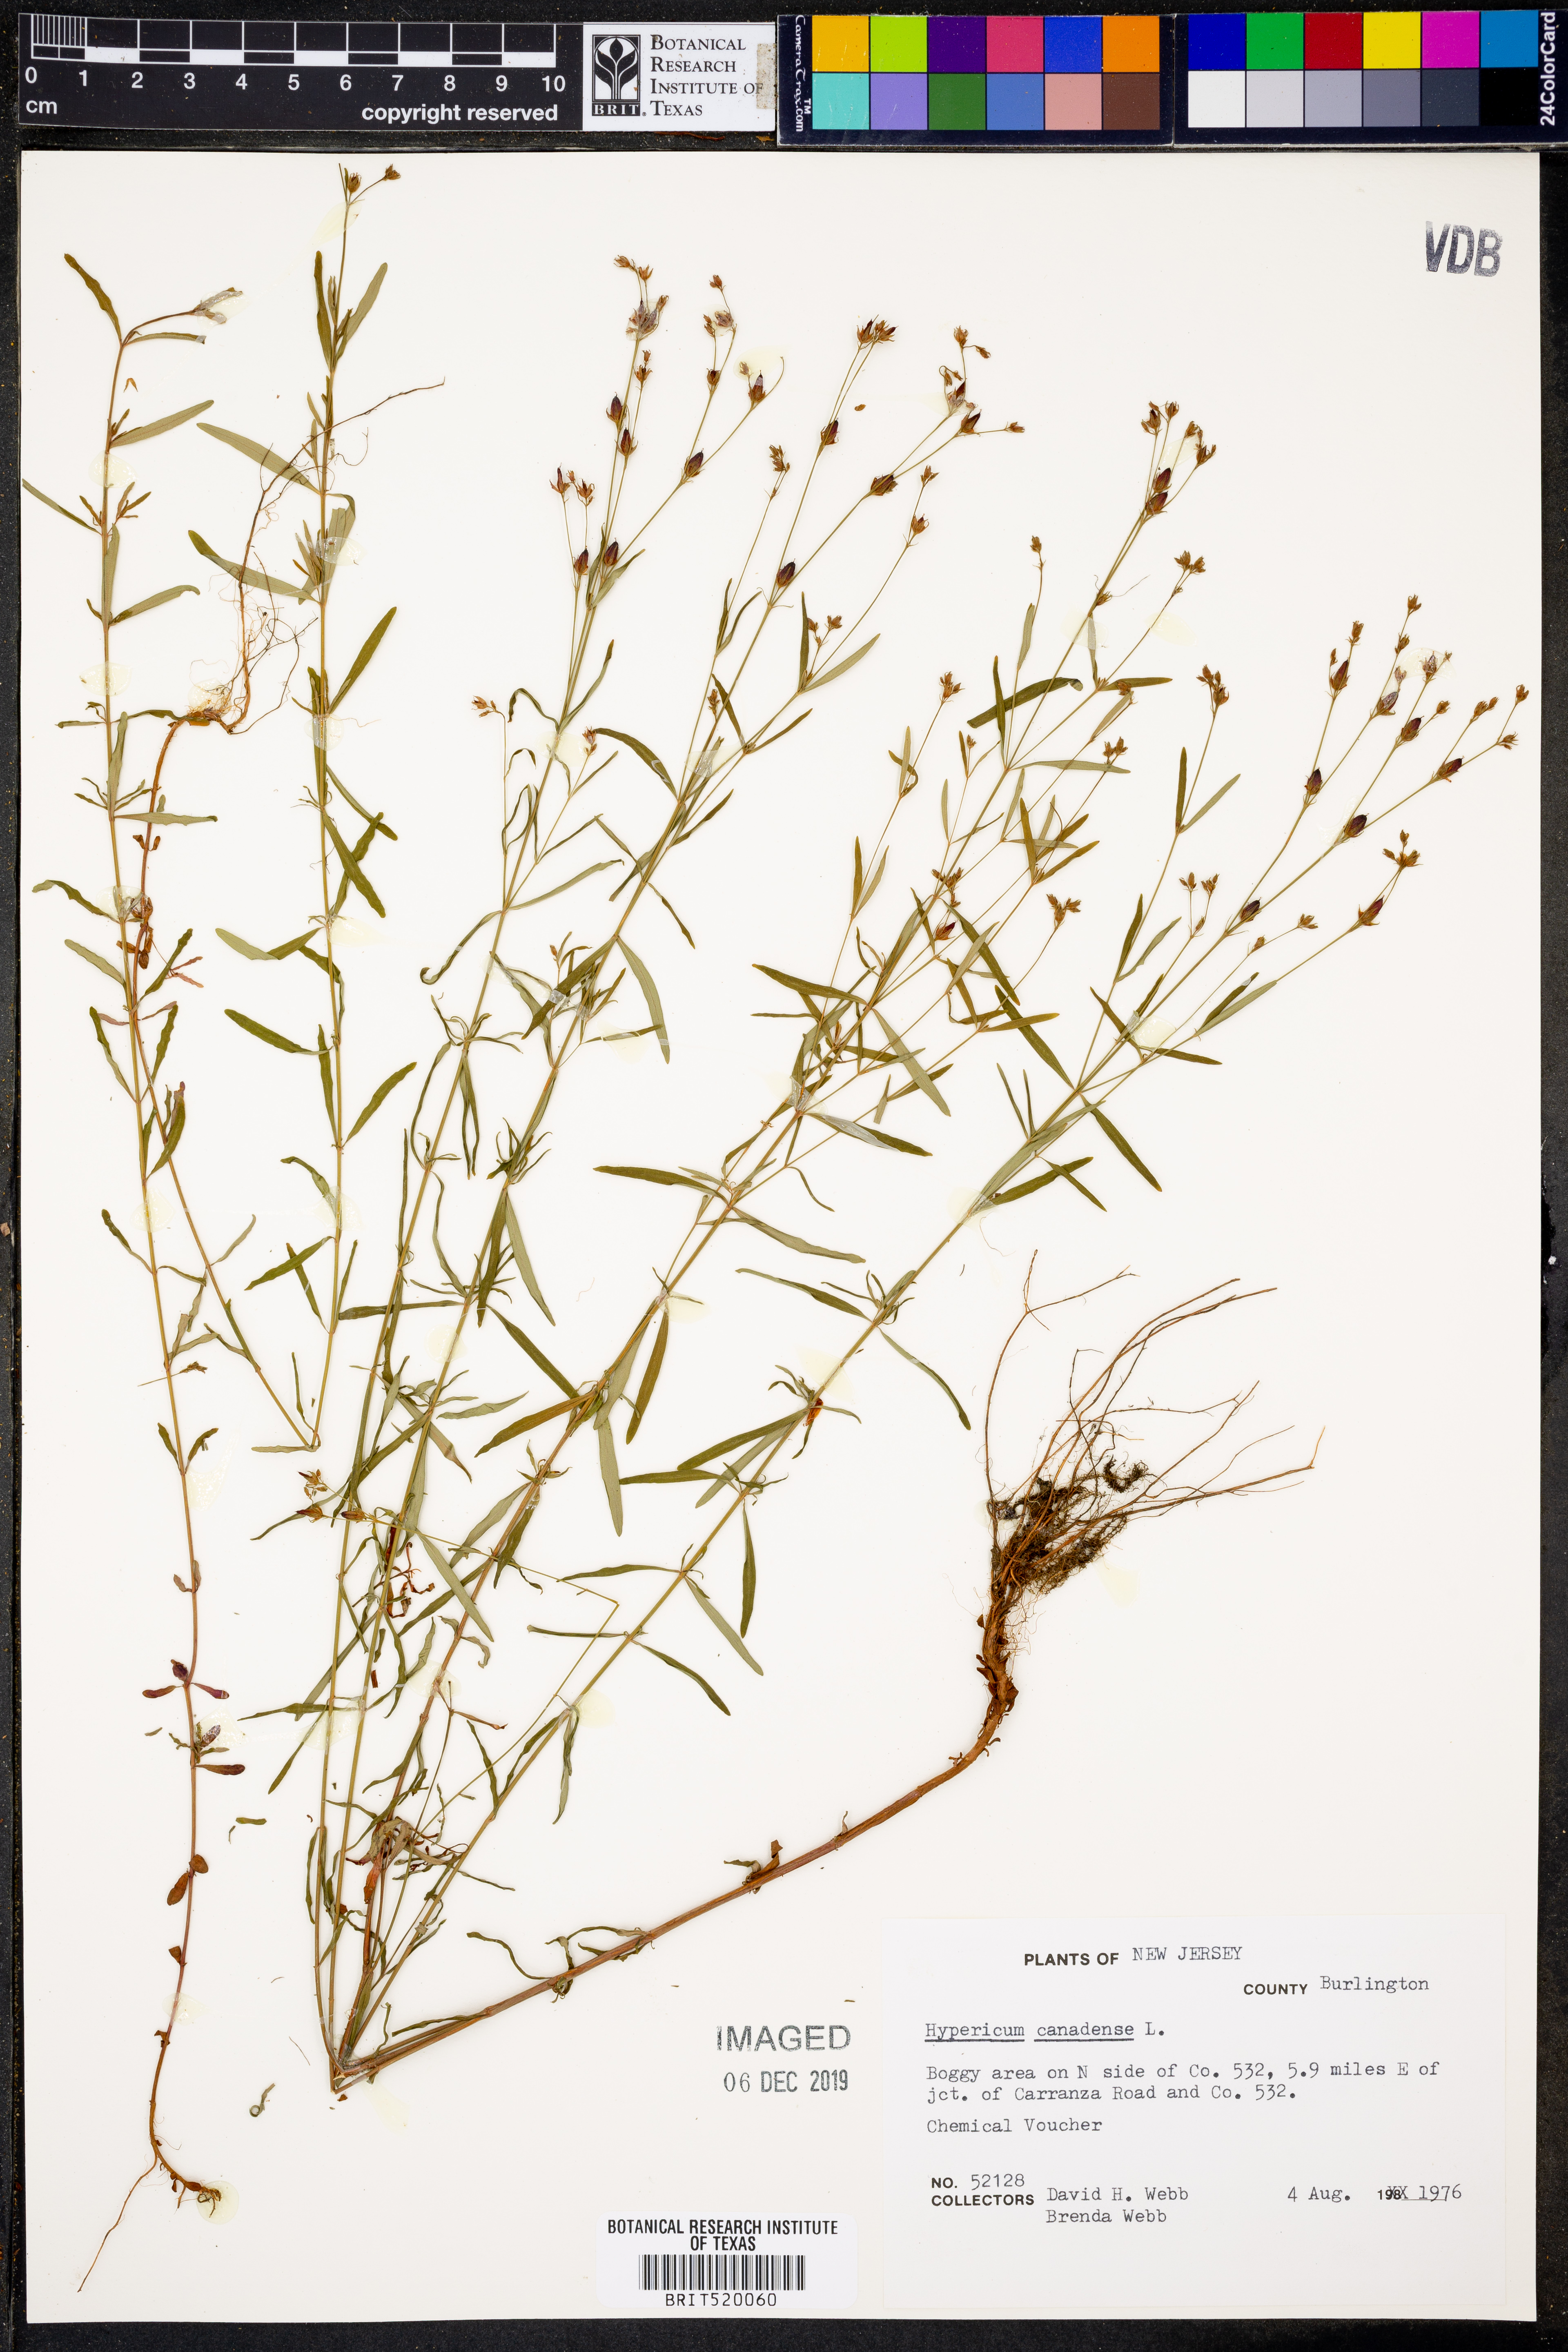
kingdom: Plantae
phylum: Tracheophyta
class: Magnoliopsida
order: Malpighiales
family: Hypericaceae
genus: Hypericum
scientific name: Hypericum canadense
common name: Irish st. john's-wort
